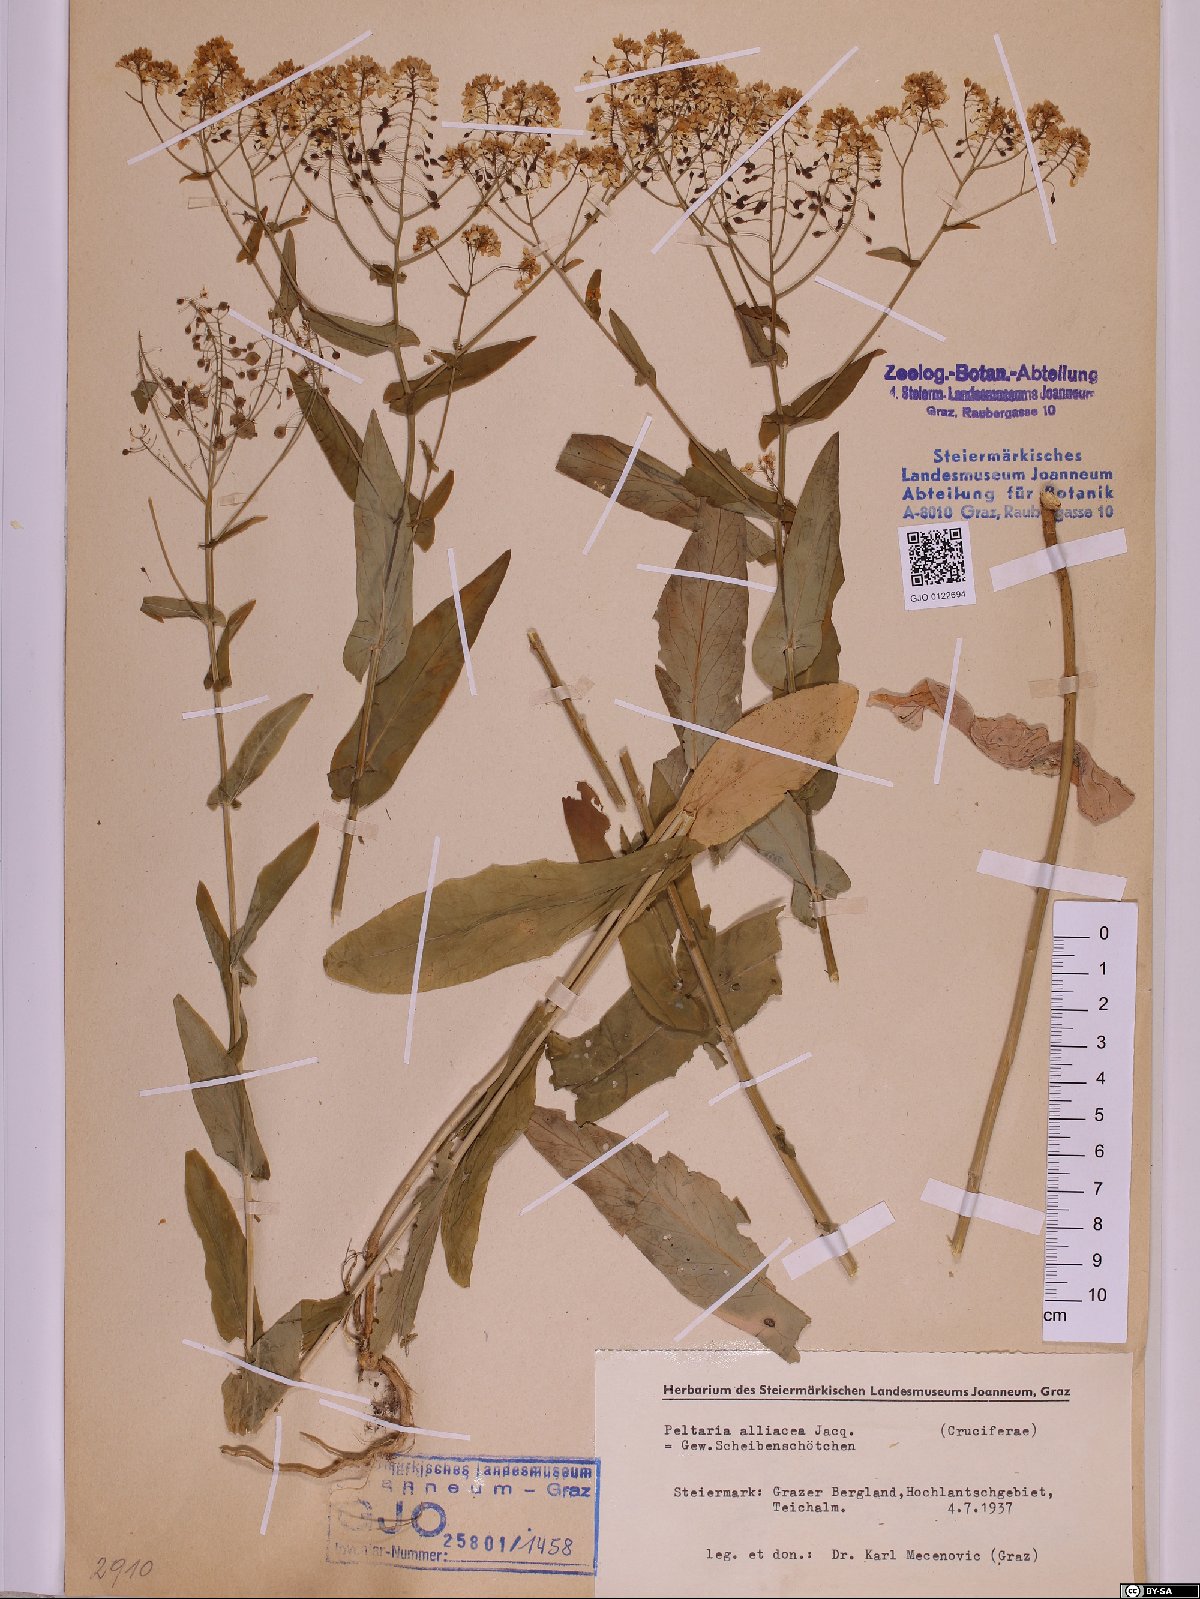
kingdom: Plantae
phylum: Tracheophyta
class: Magnoliopsida
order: Brassicales
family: Brassicaceae
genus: Peltaria
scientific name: Peltaria alliacea
